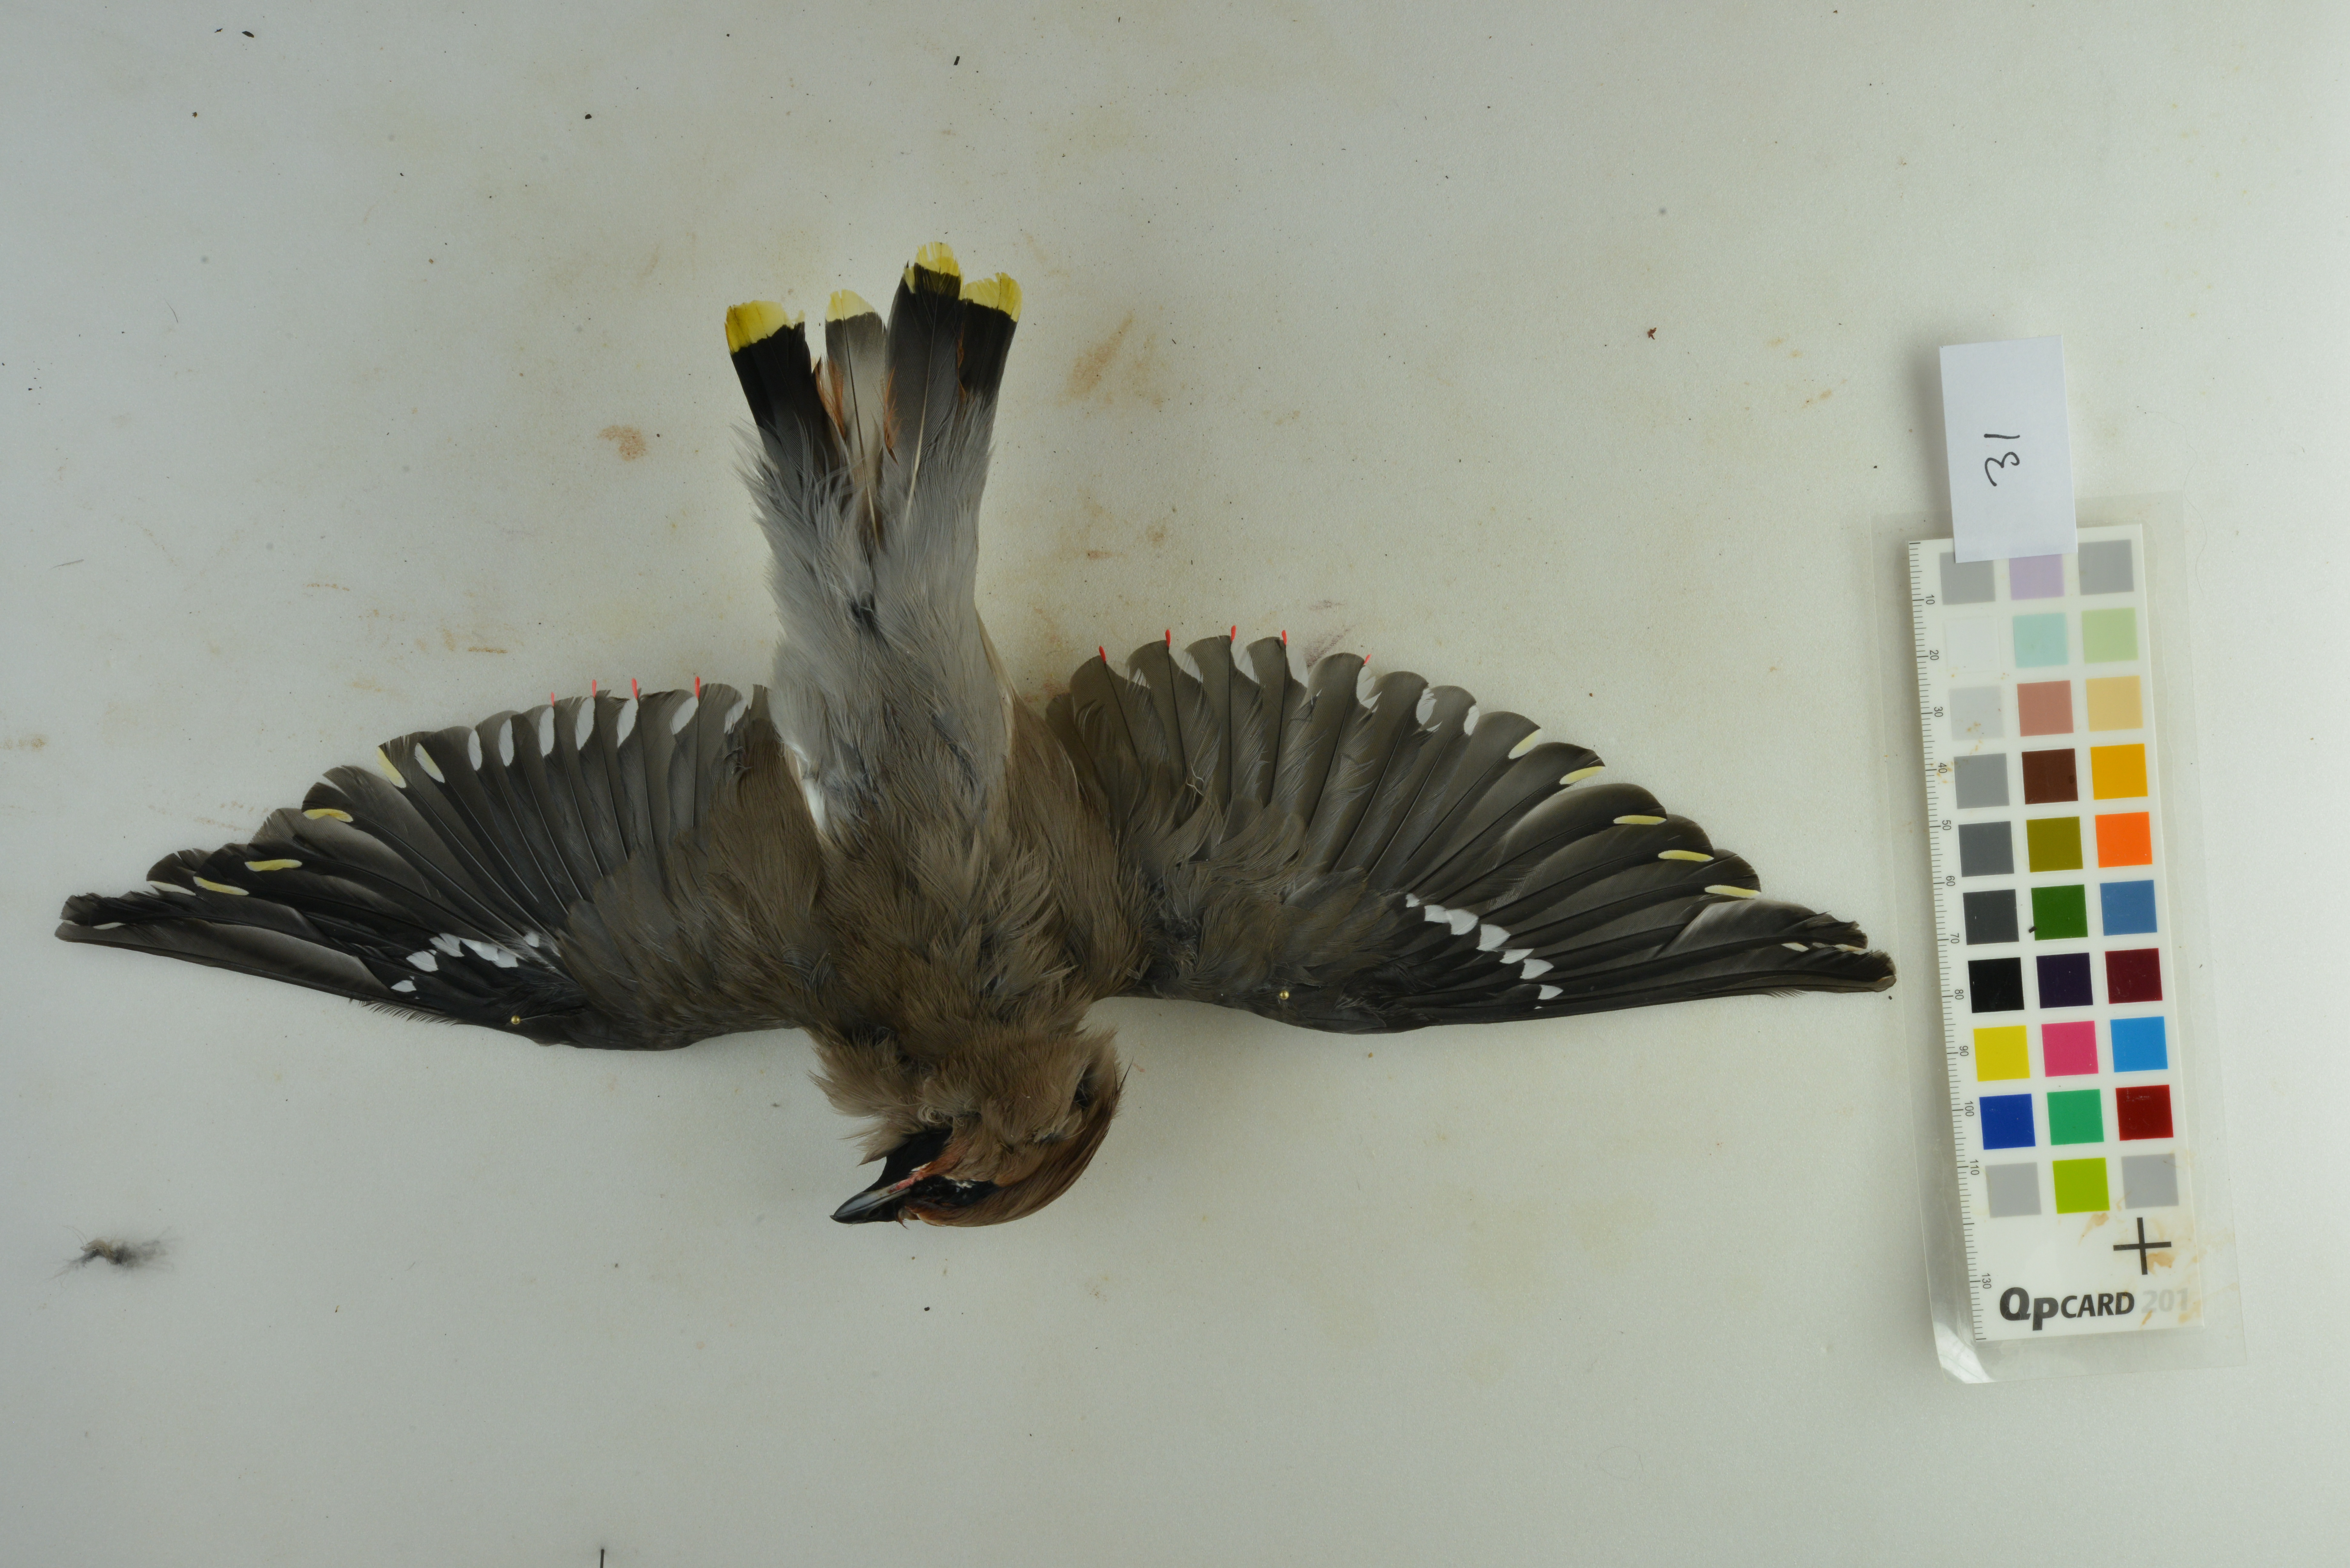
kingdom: Animalia
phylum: Chordata
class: Aves
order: Passeriformes
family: Bombycillidae
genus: Bombycilla
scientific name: Bombycilla garrulus
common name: Bohemian waxwing
